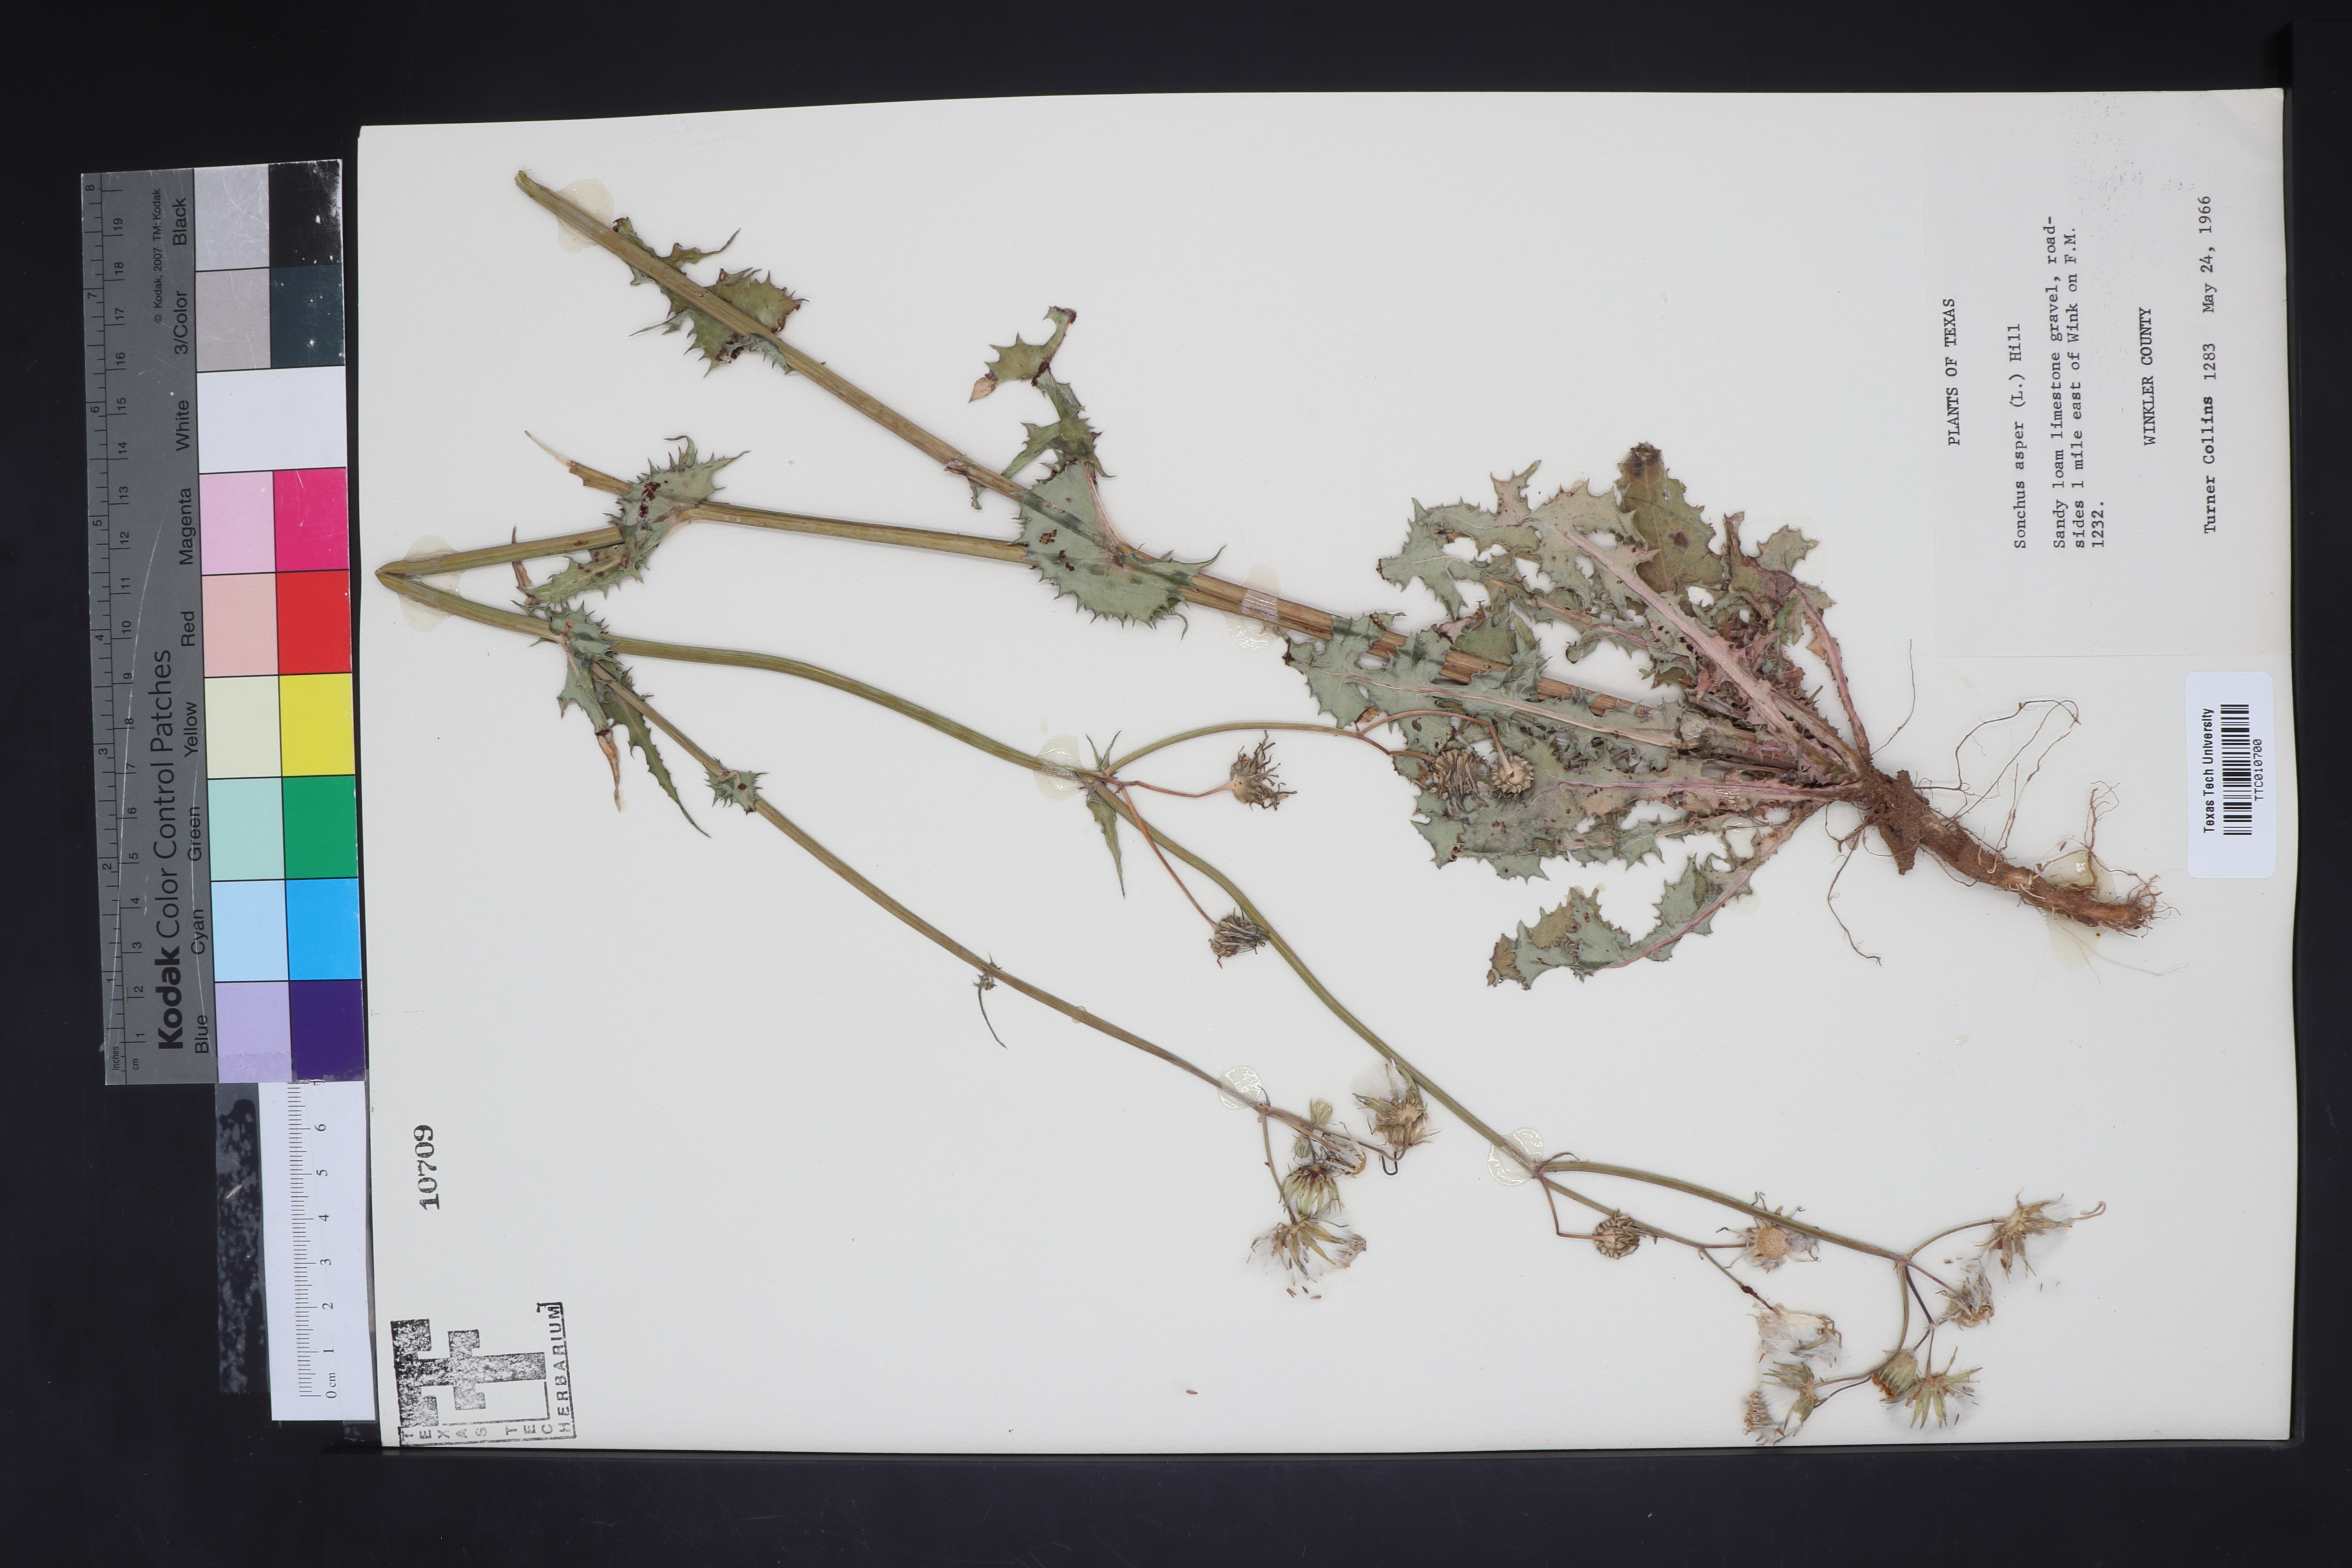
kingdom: Plantae
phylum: Tracheophyta
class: Magnoliopsida
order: Asterales
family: Asteraceae
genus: Sonchus
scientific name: Sonchus asper
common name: Prickly sow-thistle
